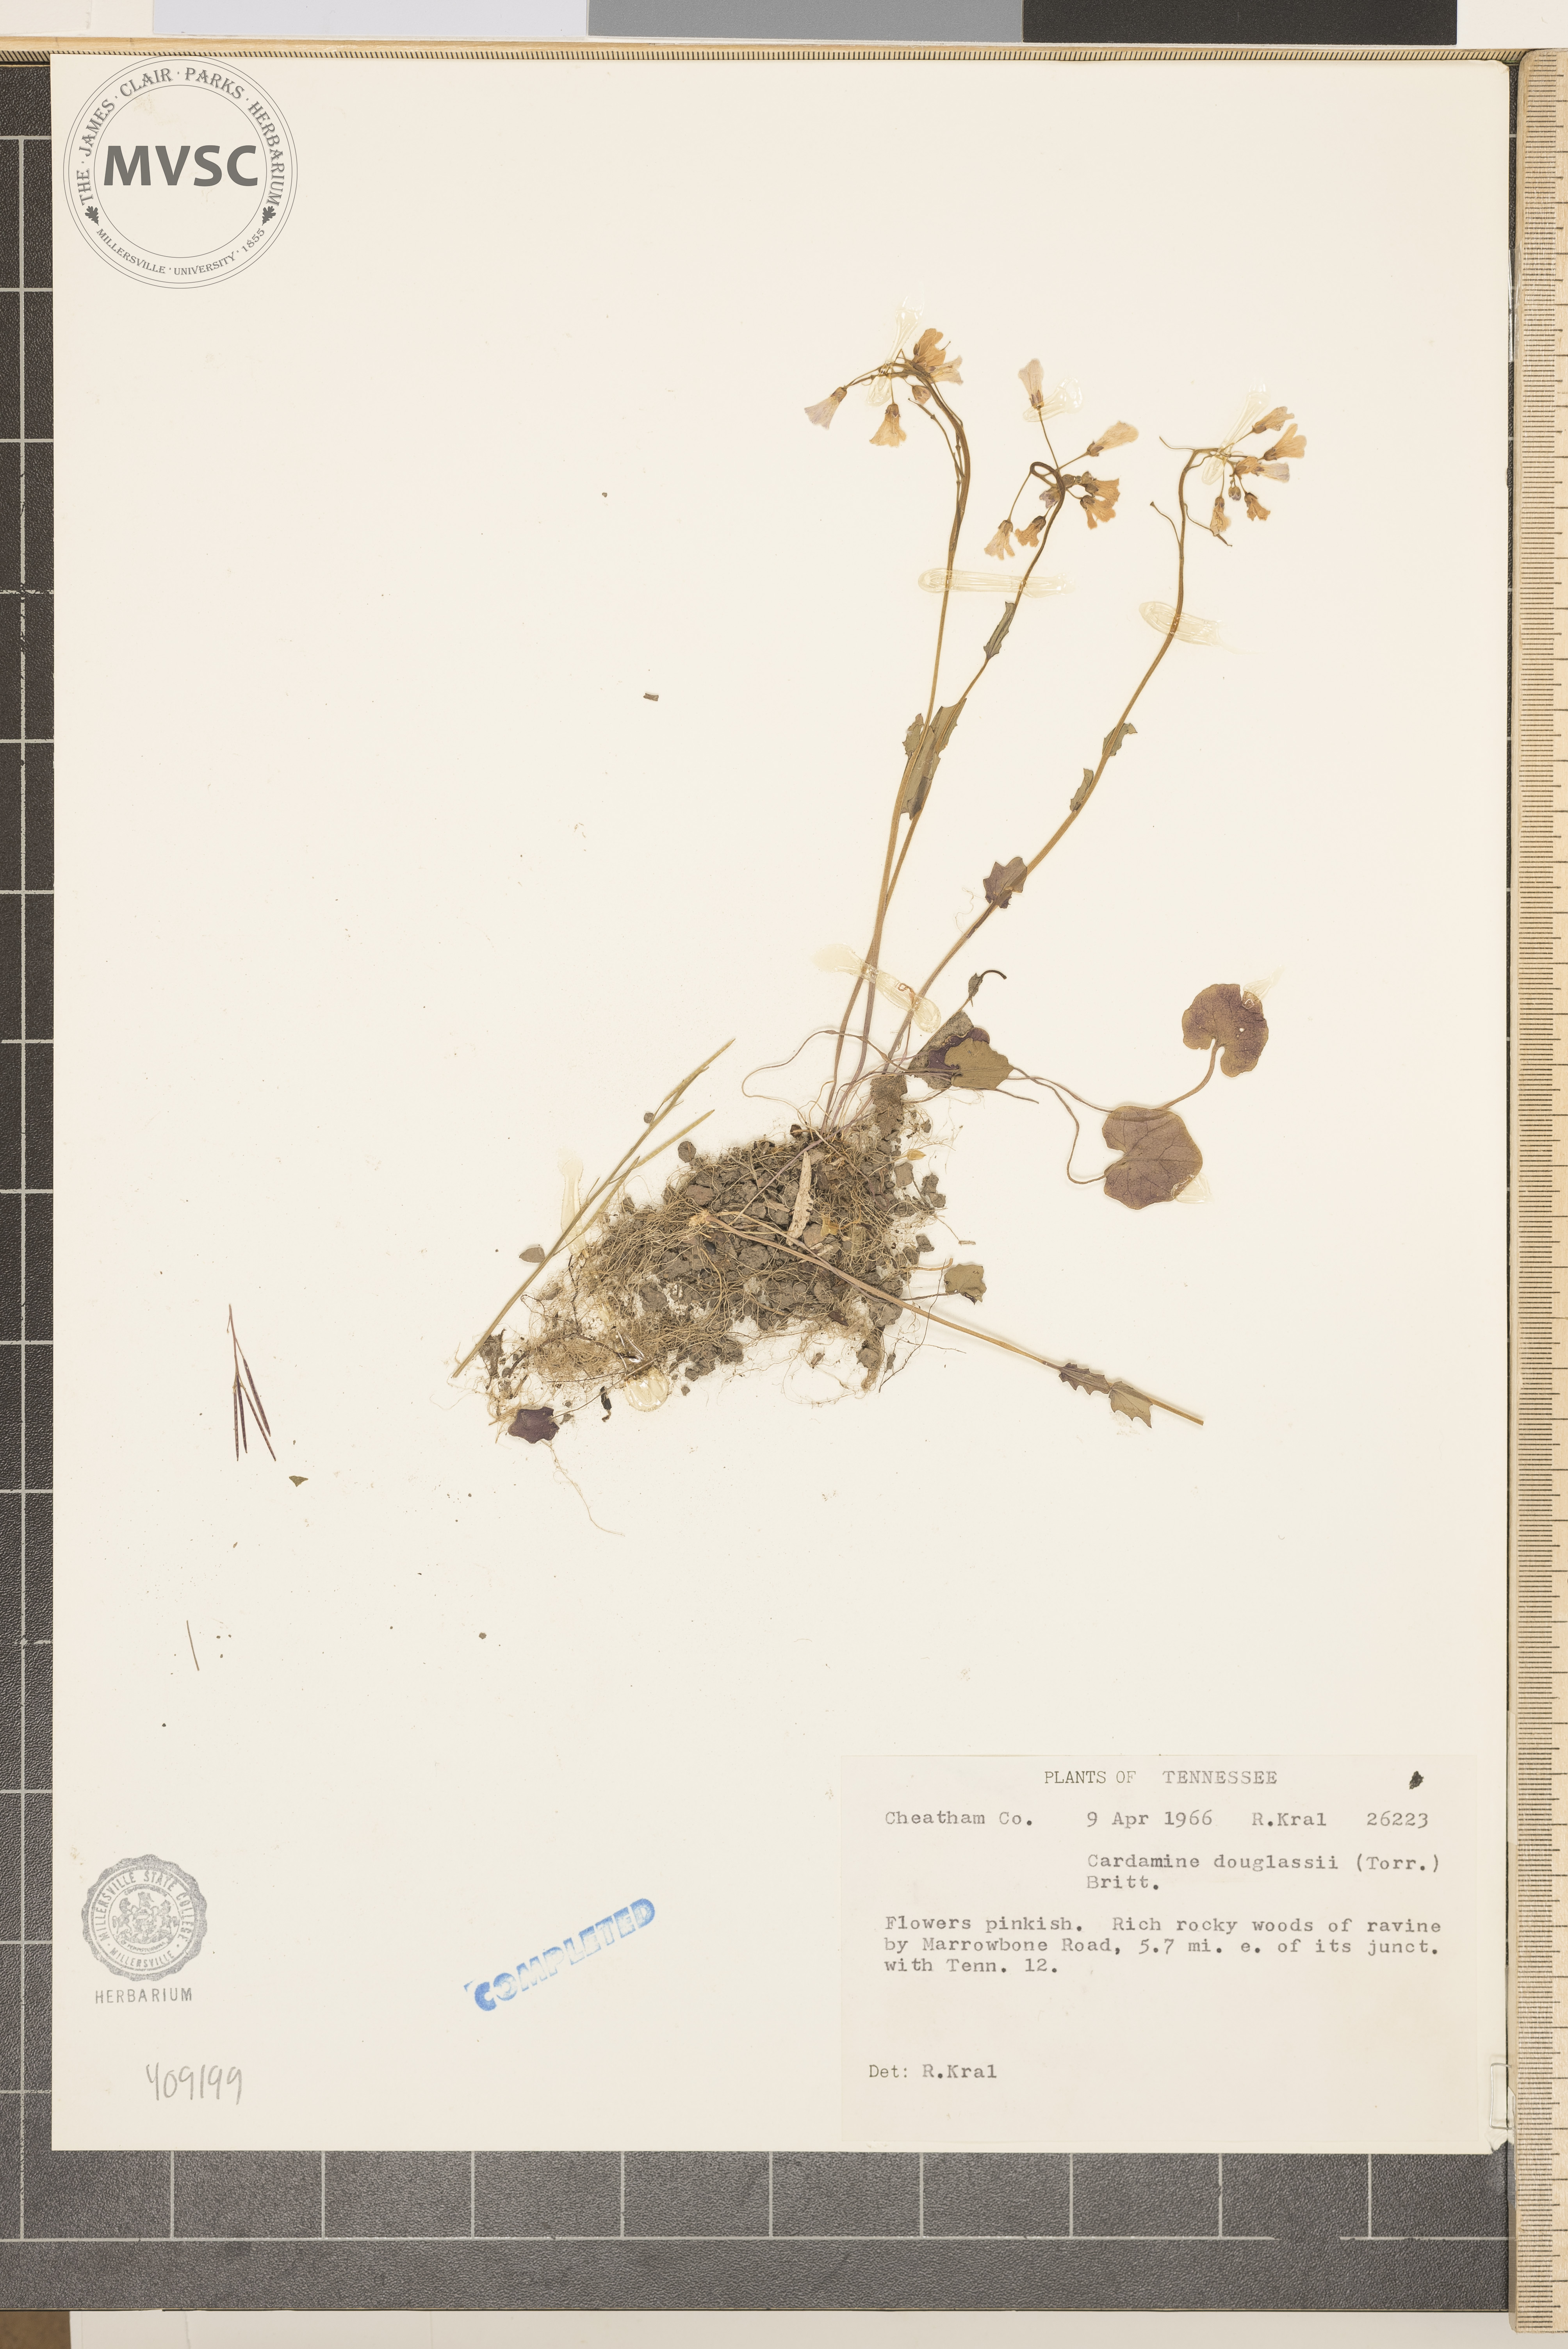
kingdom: Plantae
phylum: Tracheophyta
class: Magnoliopsida
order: Brassicales
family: Brassicaceae
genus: Cardamine
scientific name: Cardamine douglassii
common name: Purple cress
